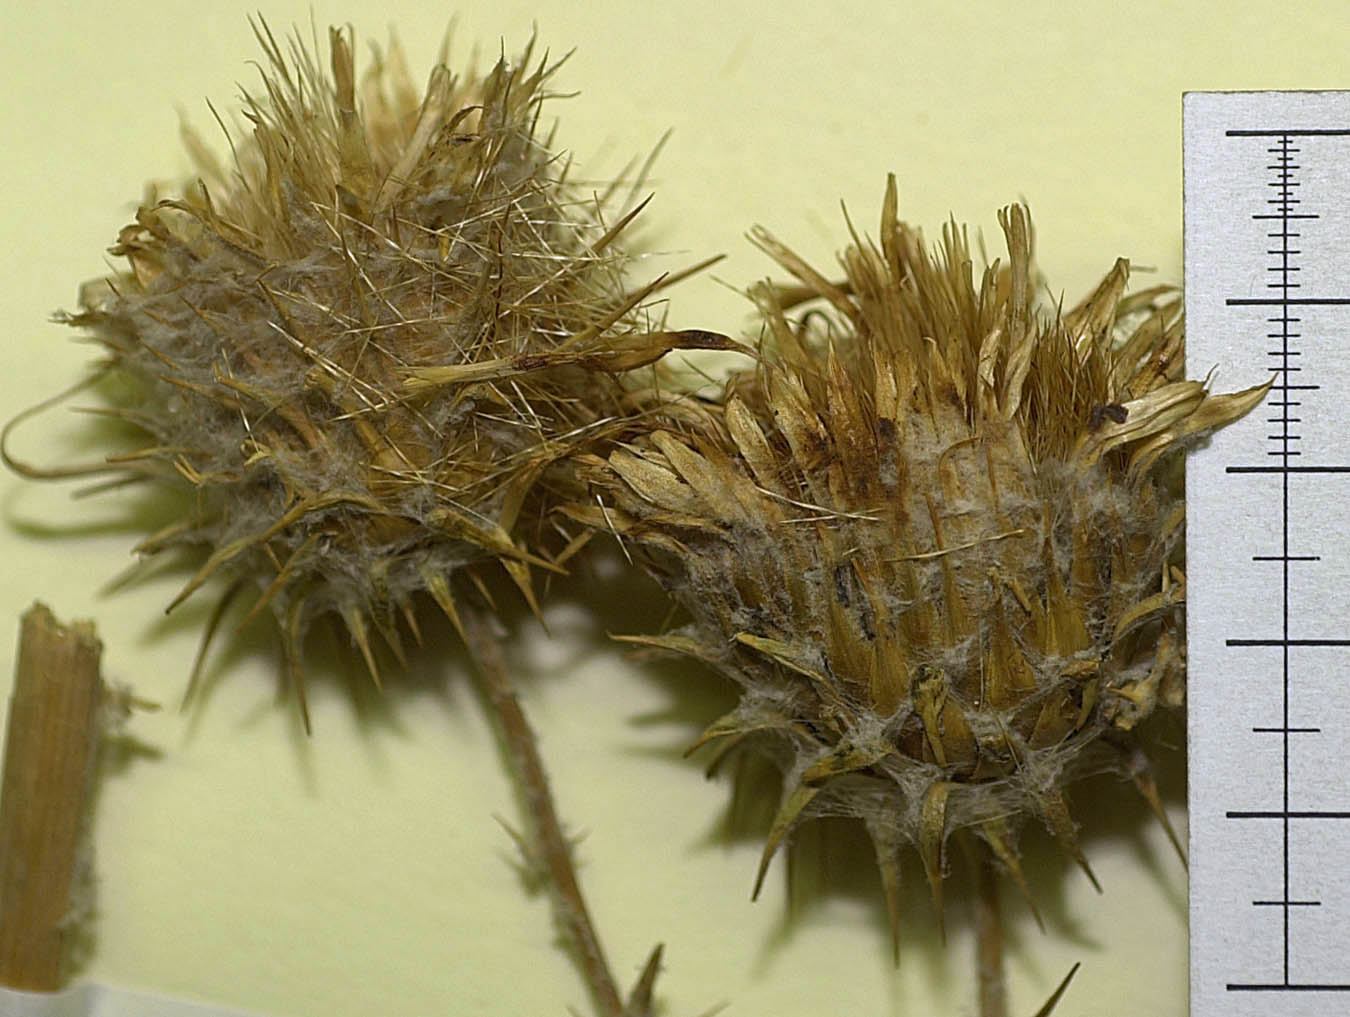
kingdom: Plantae
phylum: Tracheophyta
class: Magnoliopsida
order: Asterales
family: Asteraceae
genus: Cousinia
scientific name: Cousinia novissima
